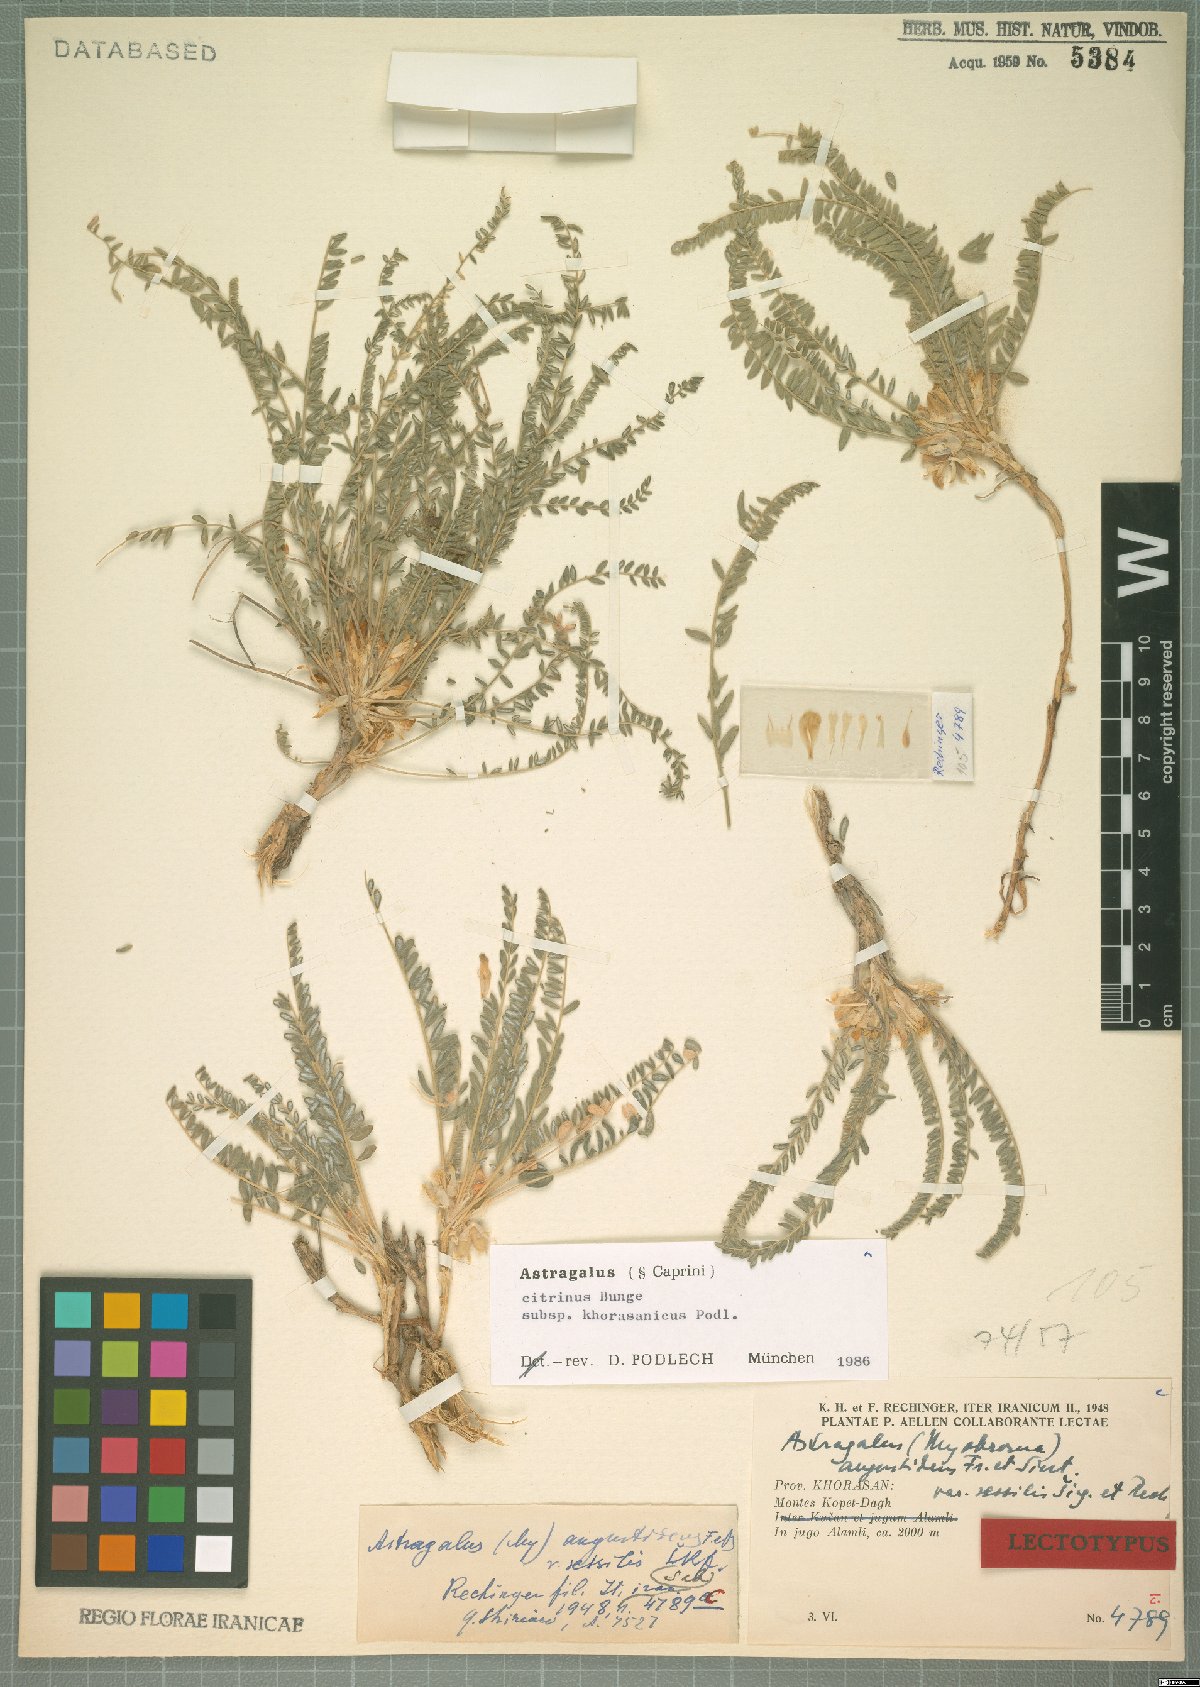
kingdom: Plantae
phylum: Tracheophyta
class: Magnoliopsida
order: Fabales
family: Fabaceae
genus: Astragalus
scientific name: Astragalus citrinus
